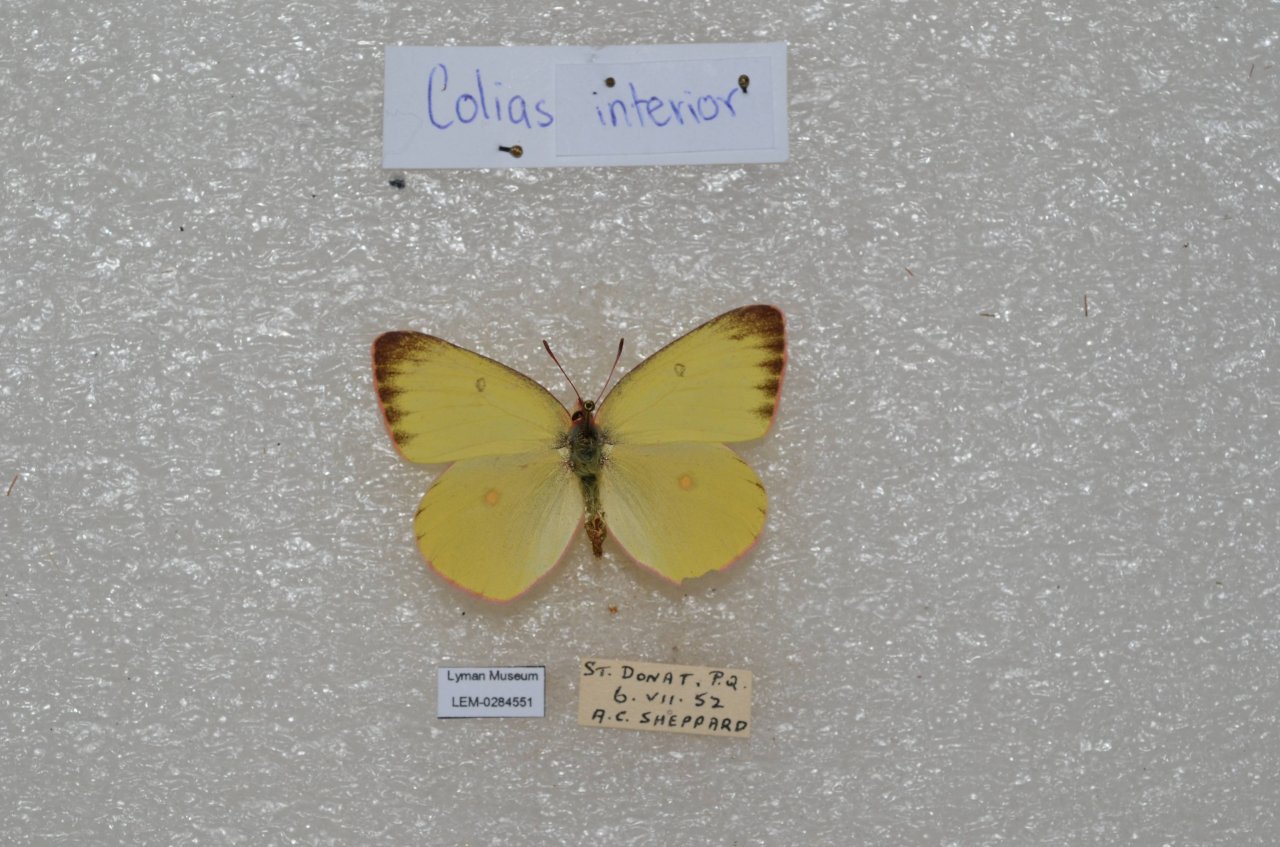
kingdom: Animalia
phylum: Arthropoda
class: Insecta
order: Lepidoptera
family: Pieridae
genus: Colias
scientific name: Colias interior
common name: Pink-edged Sulphur
